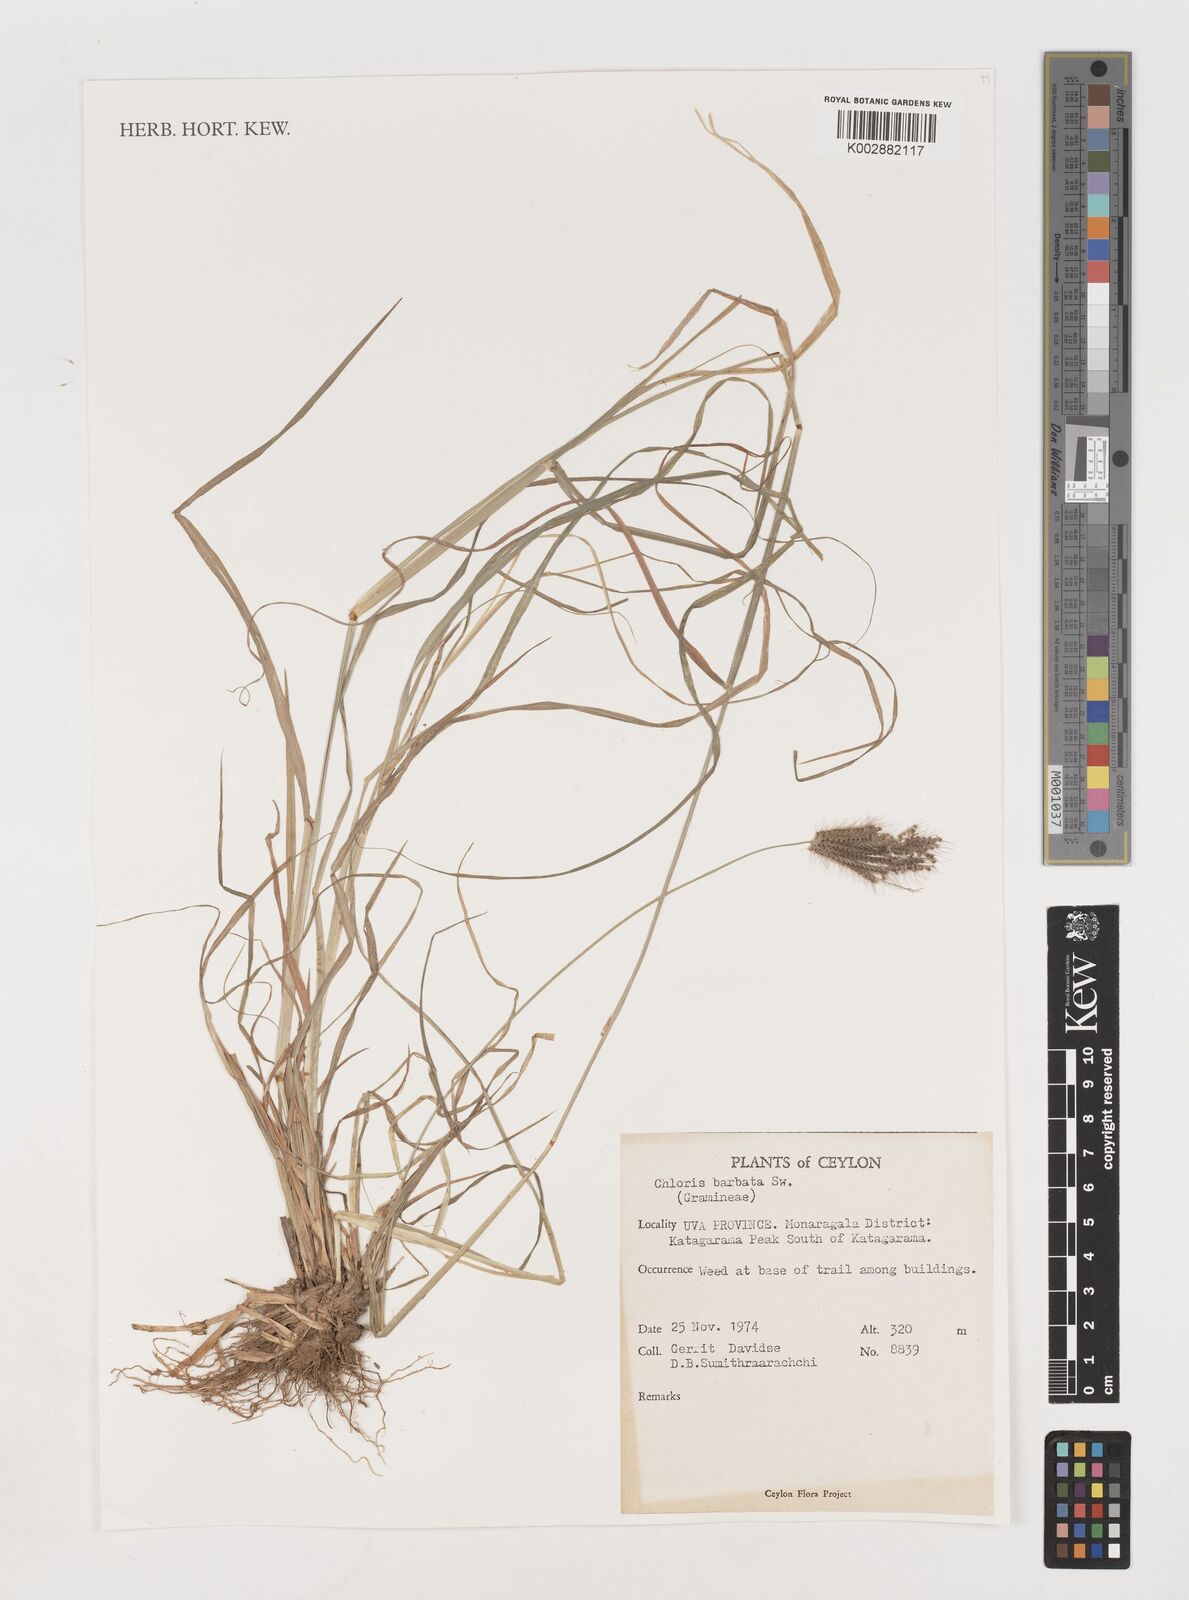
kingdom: Plantae
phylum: Tracheophyta
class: Liliopsida
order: Poales
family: Poaceae
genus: Chloris
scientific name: Chloris barbata
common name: Swollen fingergrass
